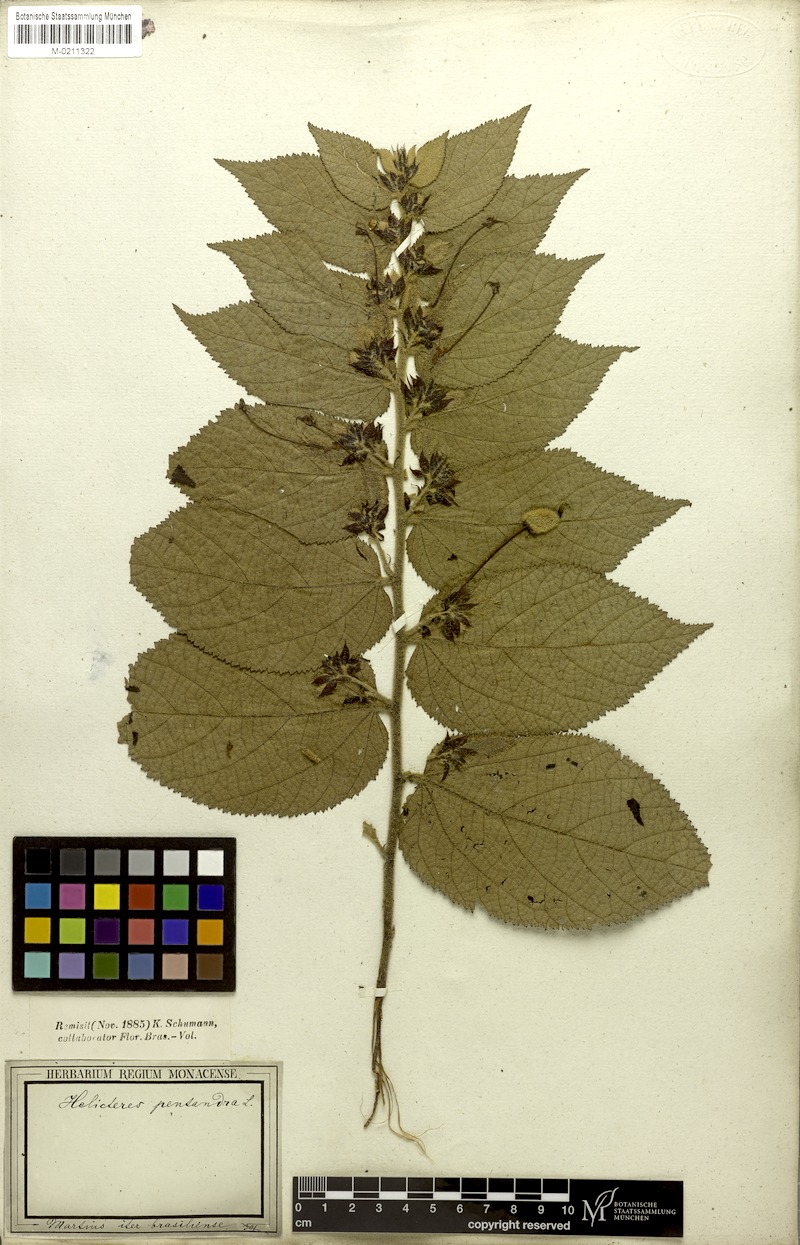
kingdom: Plantae
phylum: Tracheophyta
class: Magnoliopsida
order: Malvales
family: Malvaceae
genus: Helicteres
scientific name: Helicteres pentandra
